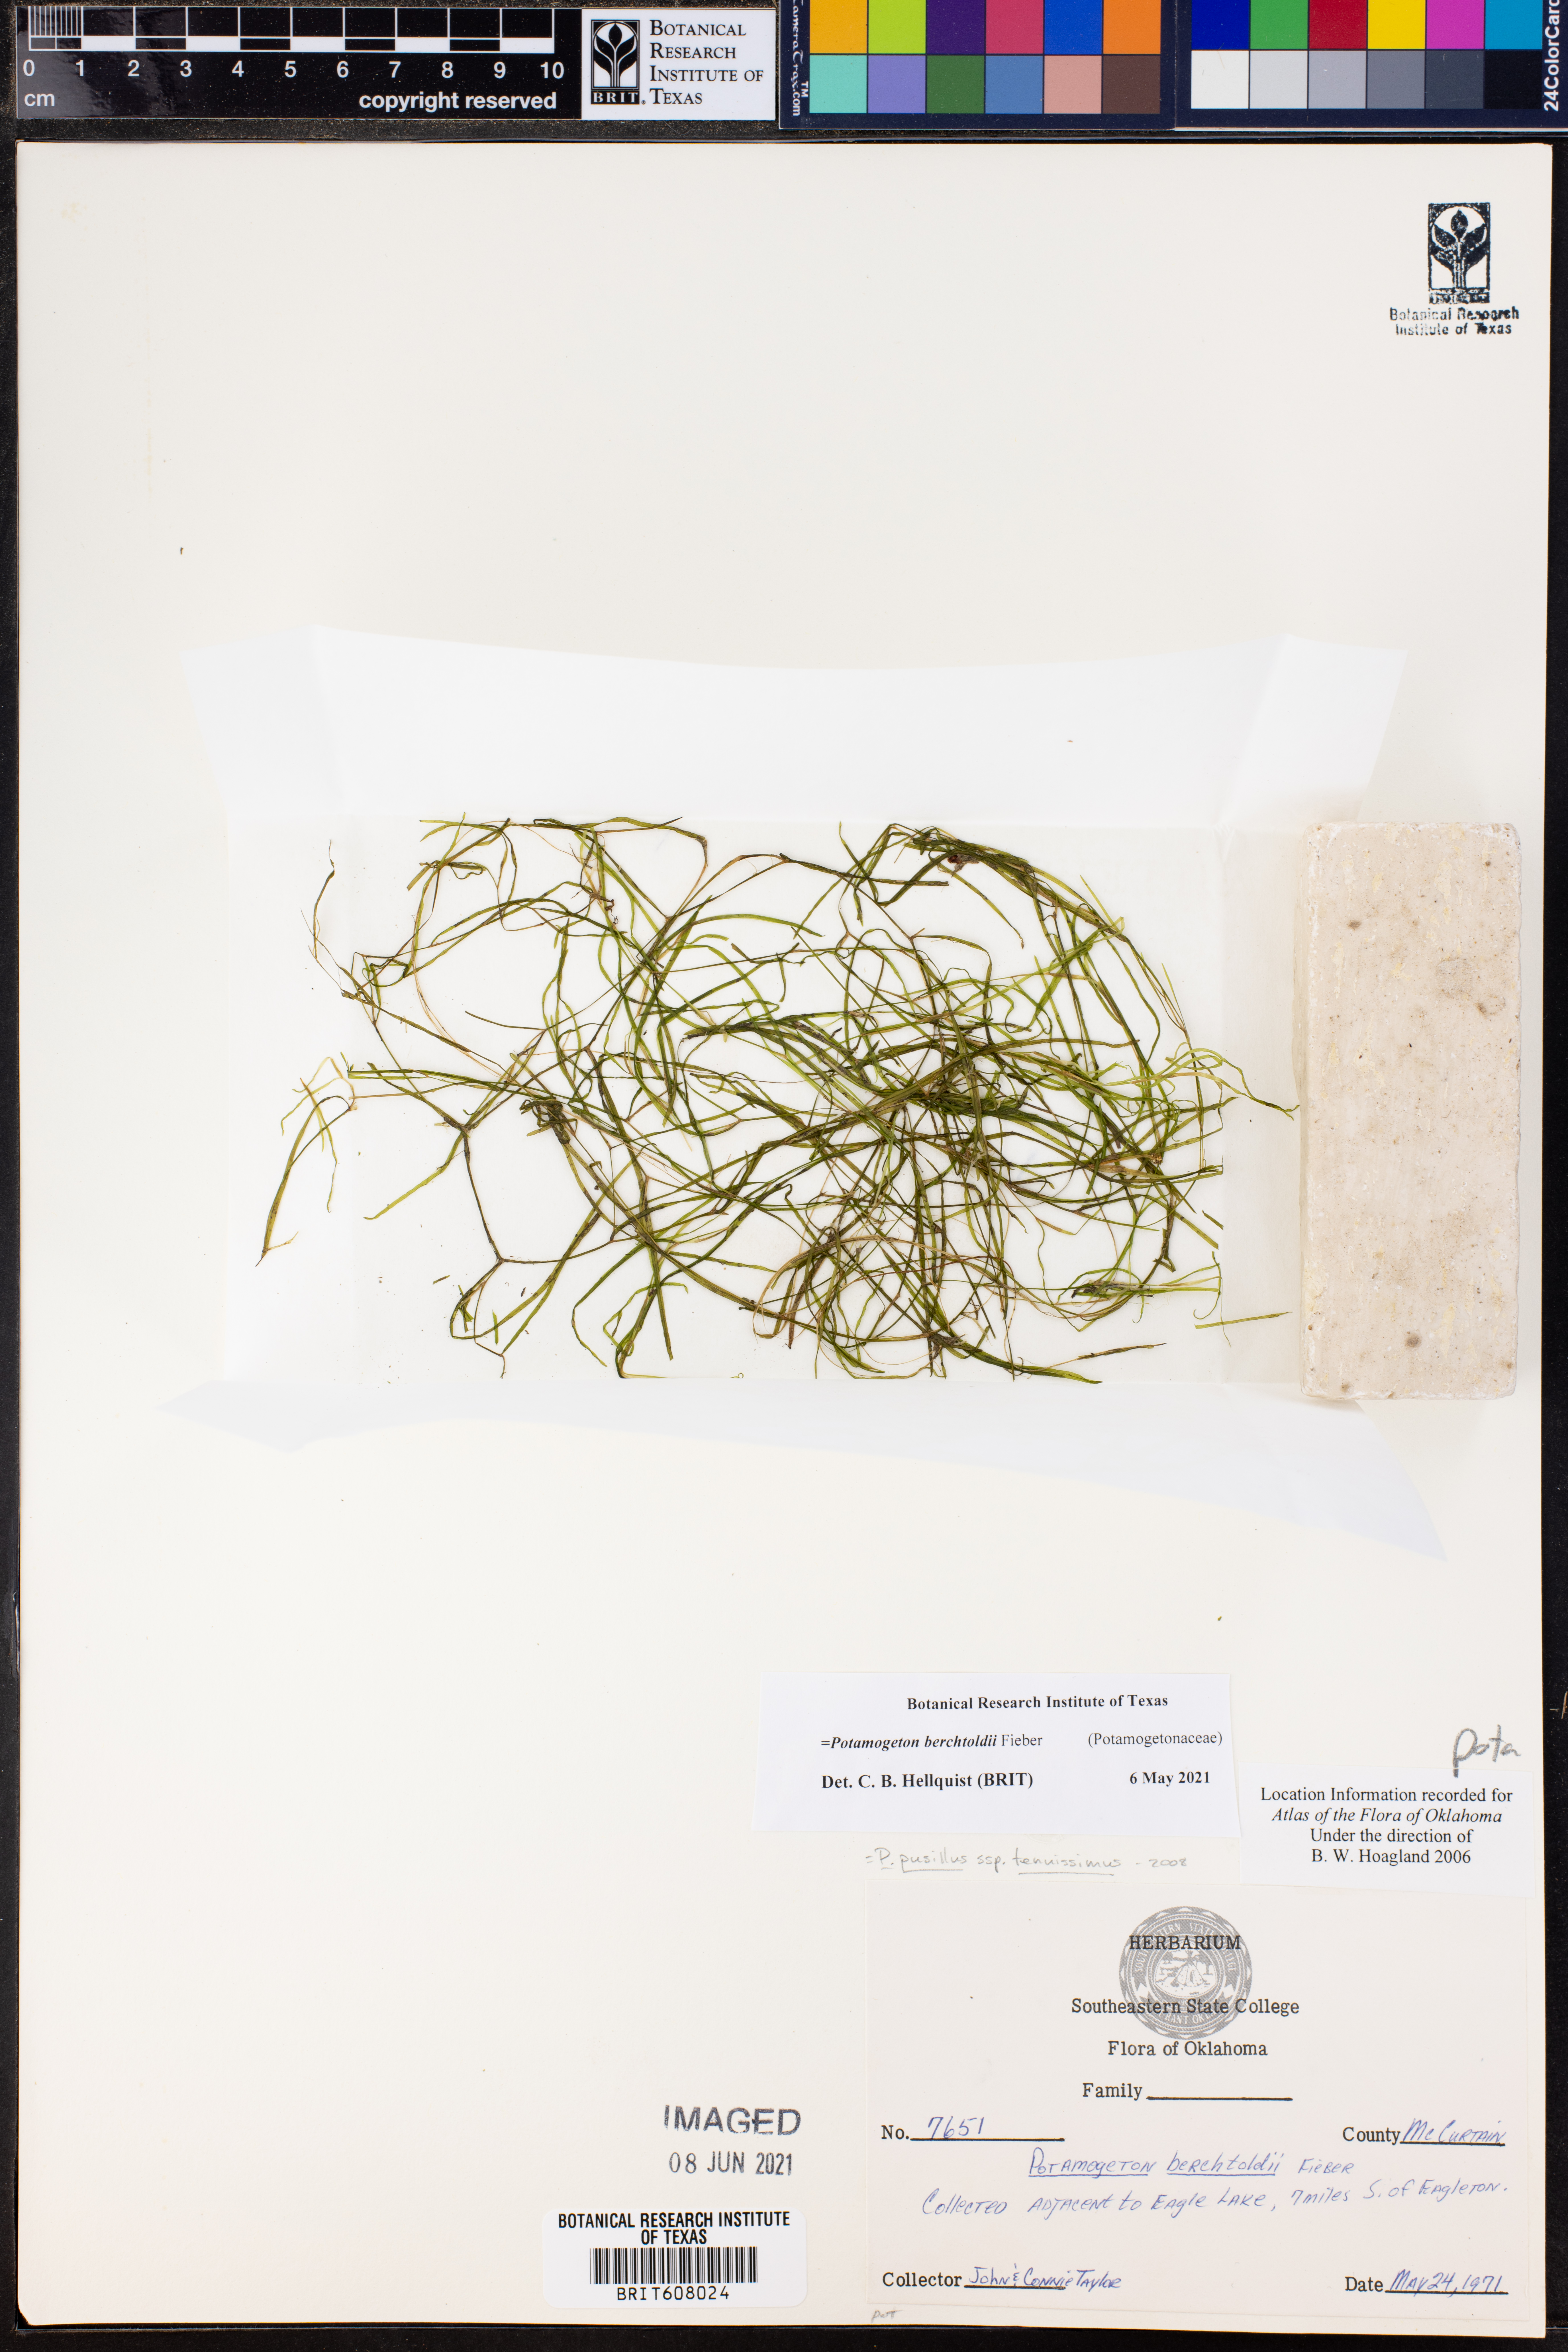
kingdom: Plantae
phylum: Tracheophyta
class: Liliopsida
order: Alismatales
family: Potamogetonaceae
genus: Potamogeton
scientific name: Potamogeton berchtoldii
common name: Small pondweed
